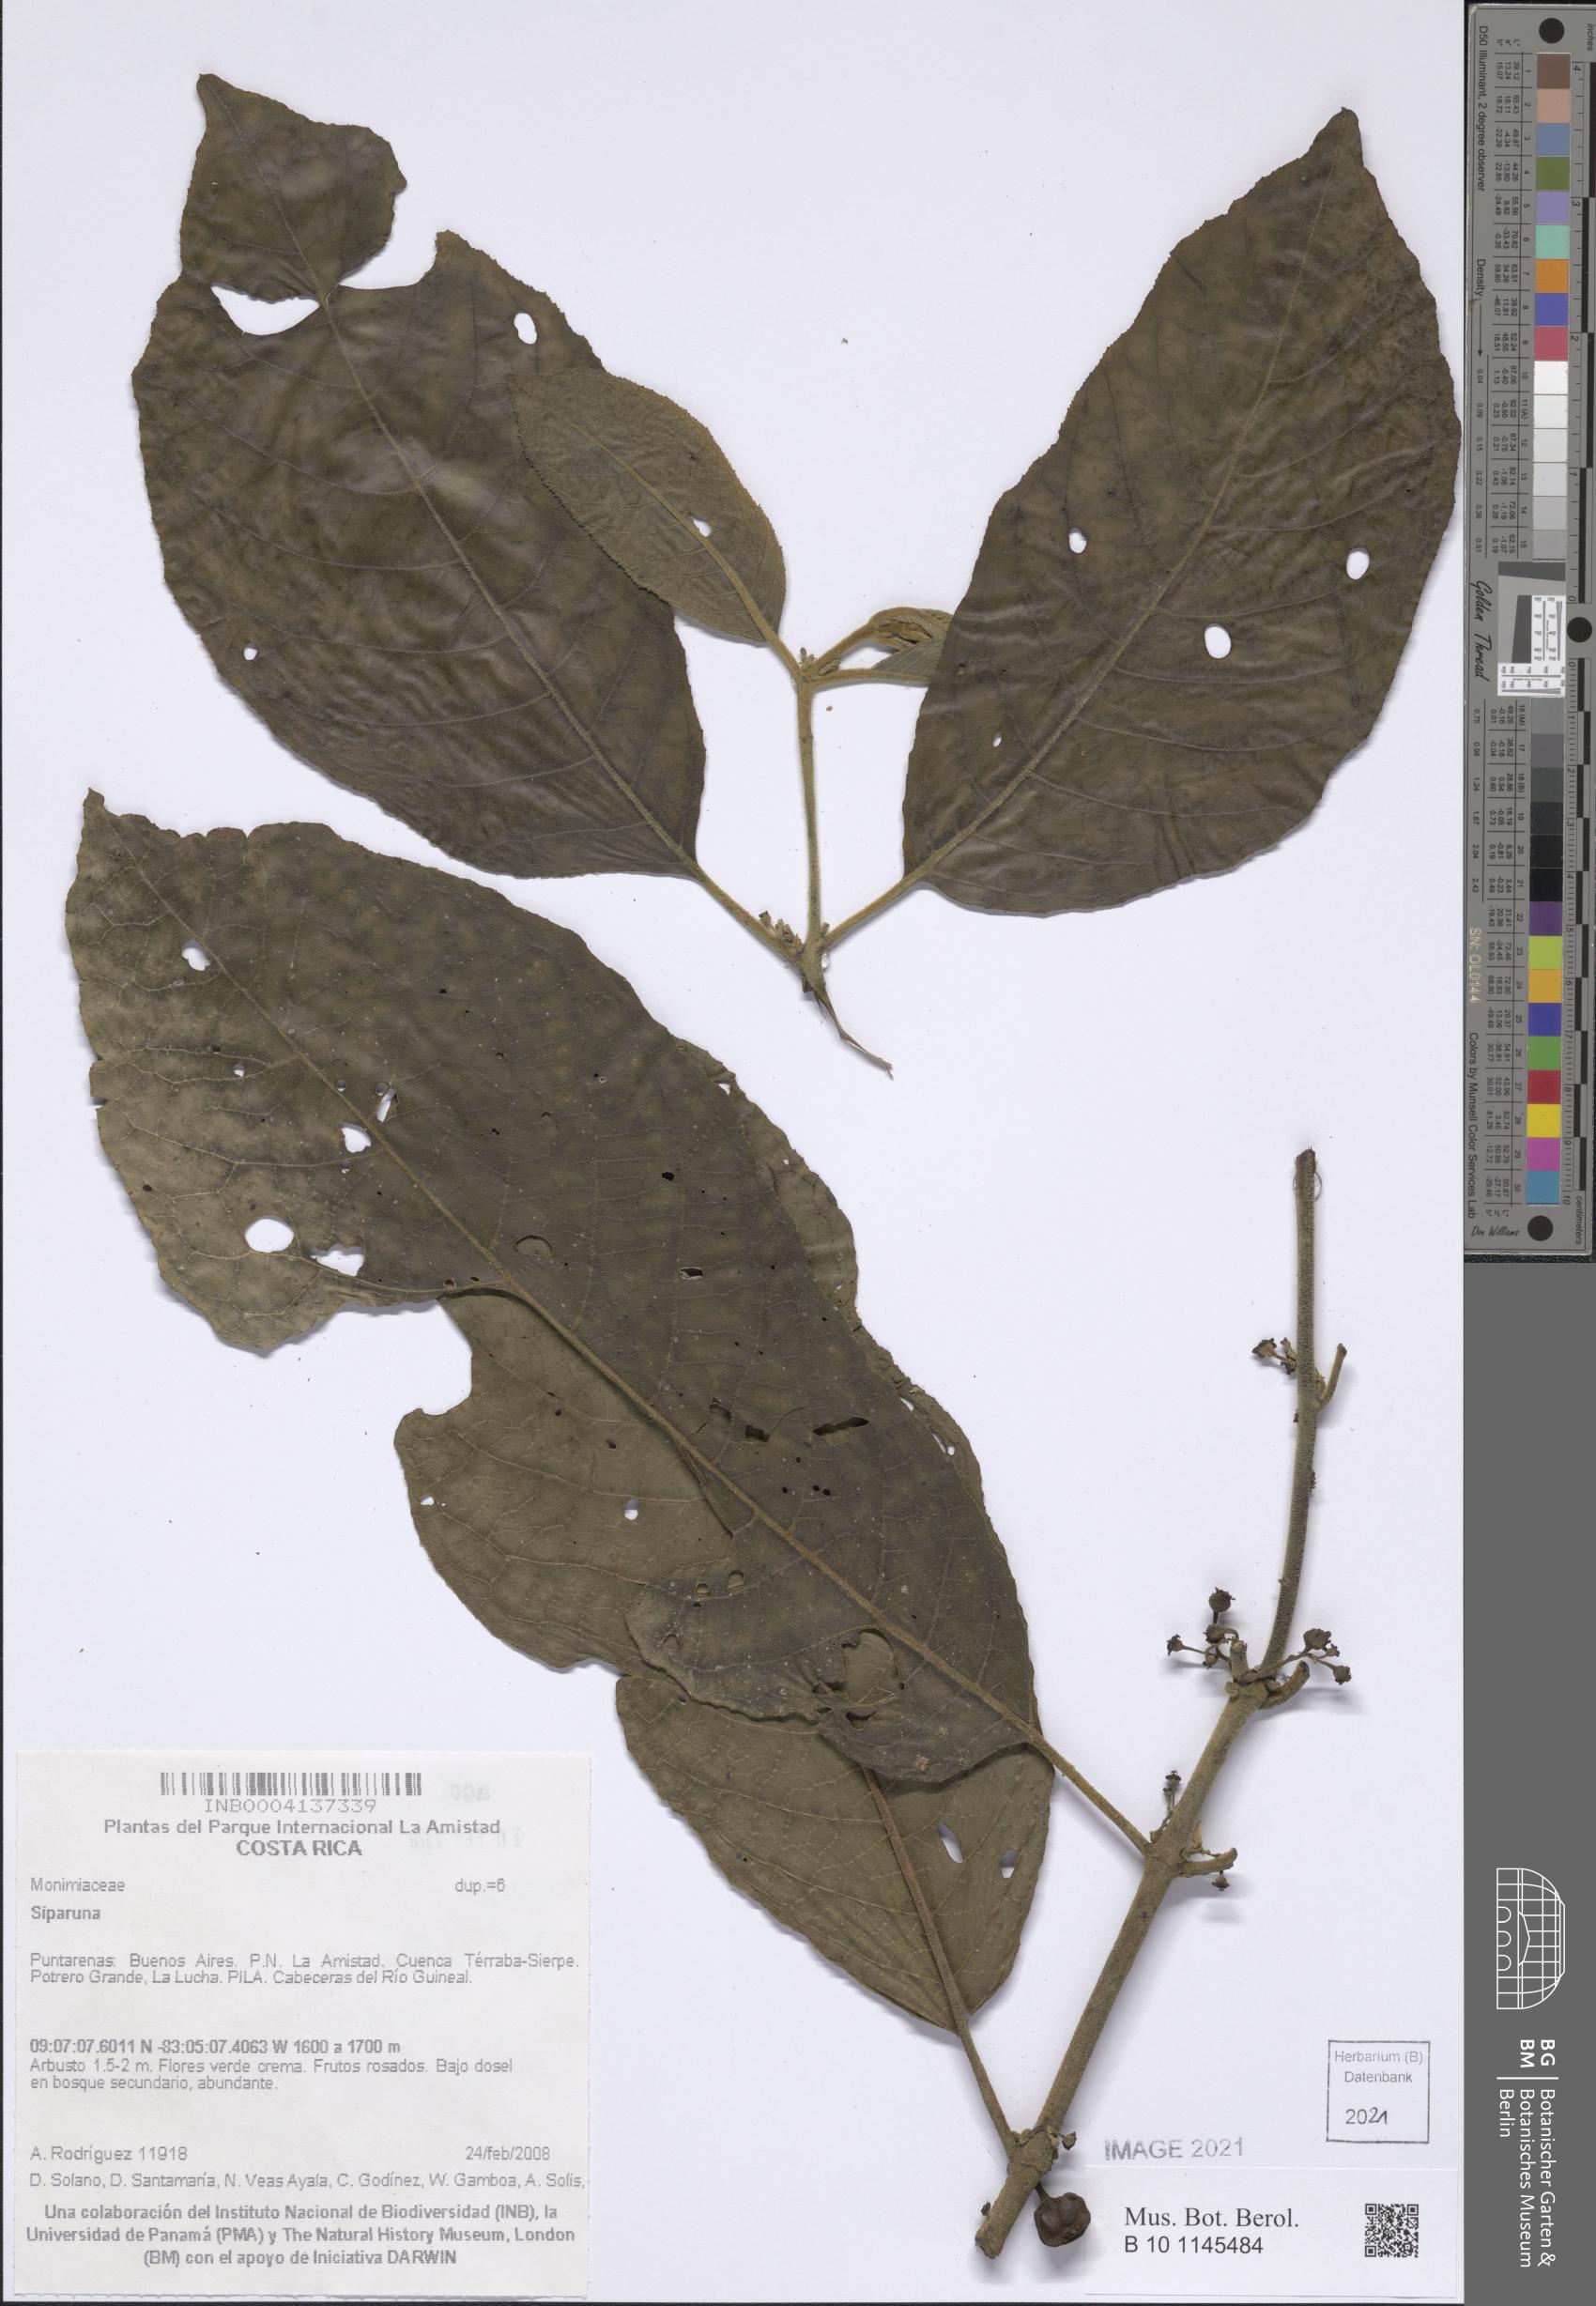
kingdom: Plantae
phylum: Tracheophyta
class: Magnoliopsida
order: Laurales
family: Siparunaceae
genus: Siparuna
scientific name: Siparuna
